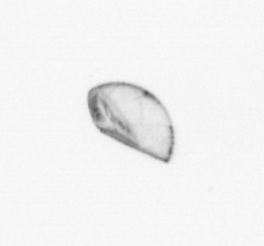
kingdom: Chromista
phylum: Ochrophyta
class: Bacillariophyceae
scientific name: Bacillariophyceae
